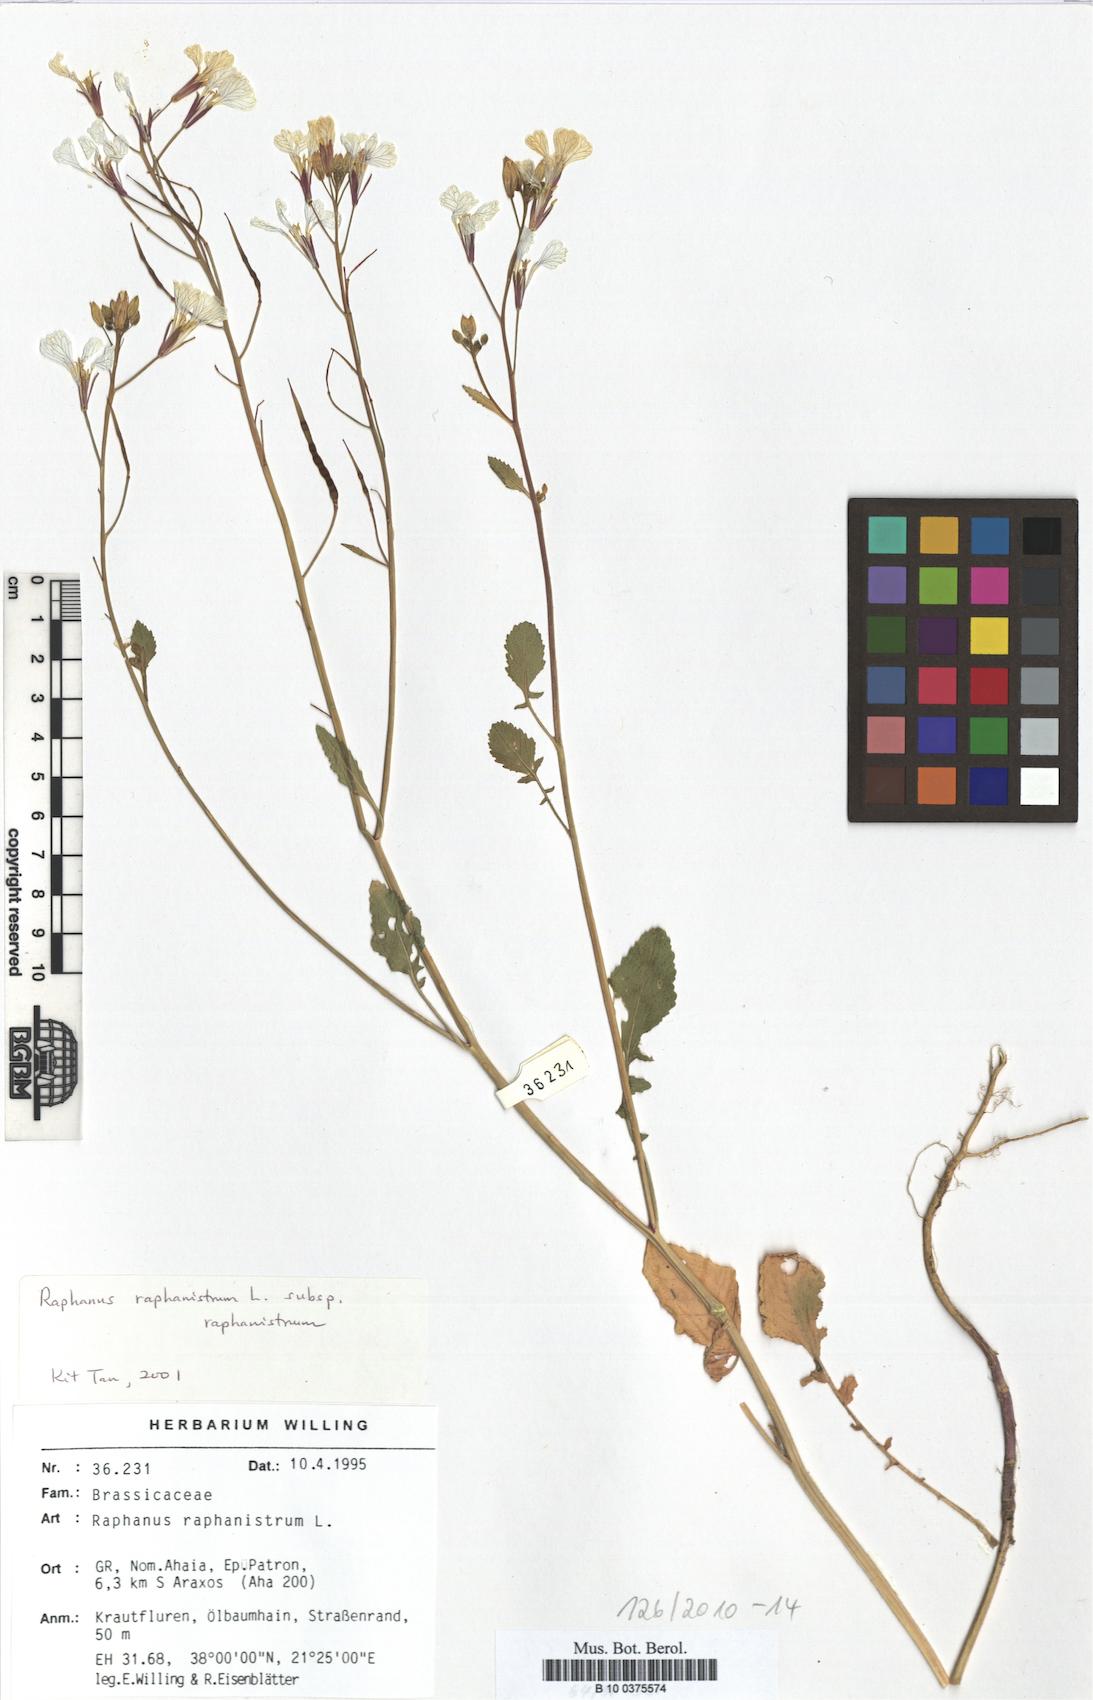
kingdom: Plantae
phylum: Tracheophyta
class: Magnoliopsida
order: Brassicales
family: Brassicaceae
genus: Raphanus
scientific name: Raphanus raphanistrum
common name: Wild radish
